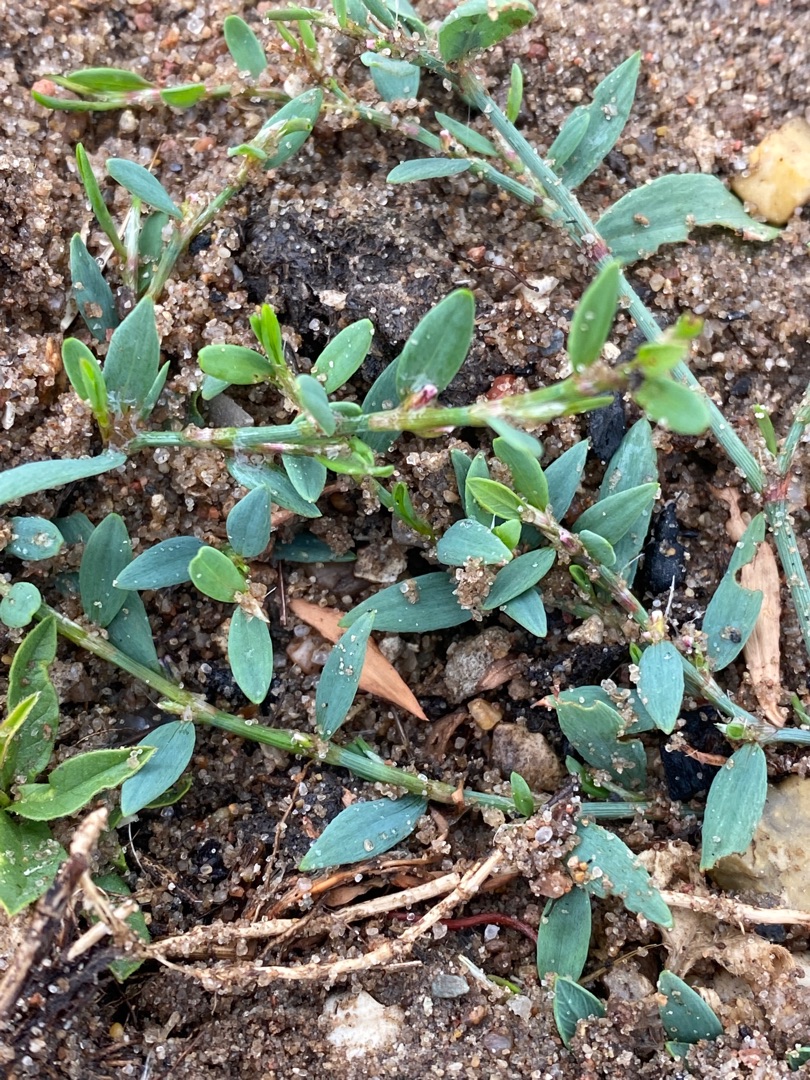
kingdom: Plantae
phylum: Tracheophyta
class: Magnoliopsida
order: Caryophyllales
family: Polygonaceae
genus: Polygonum
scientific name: Polygonum aviculare
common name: Vej-pileurt
